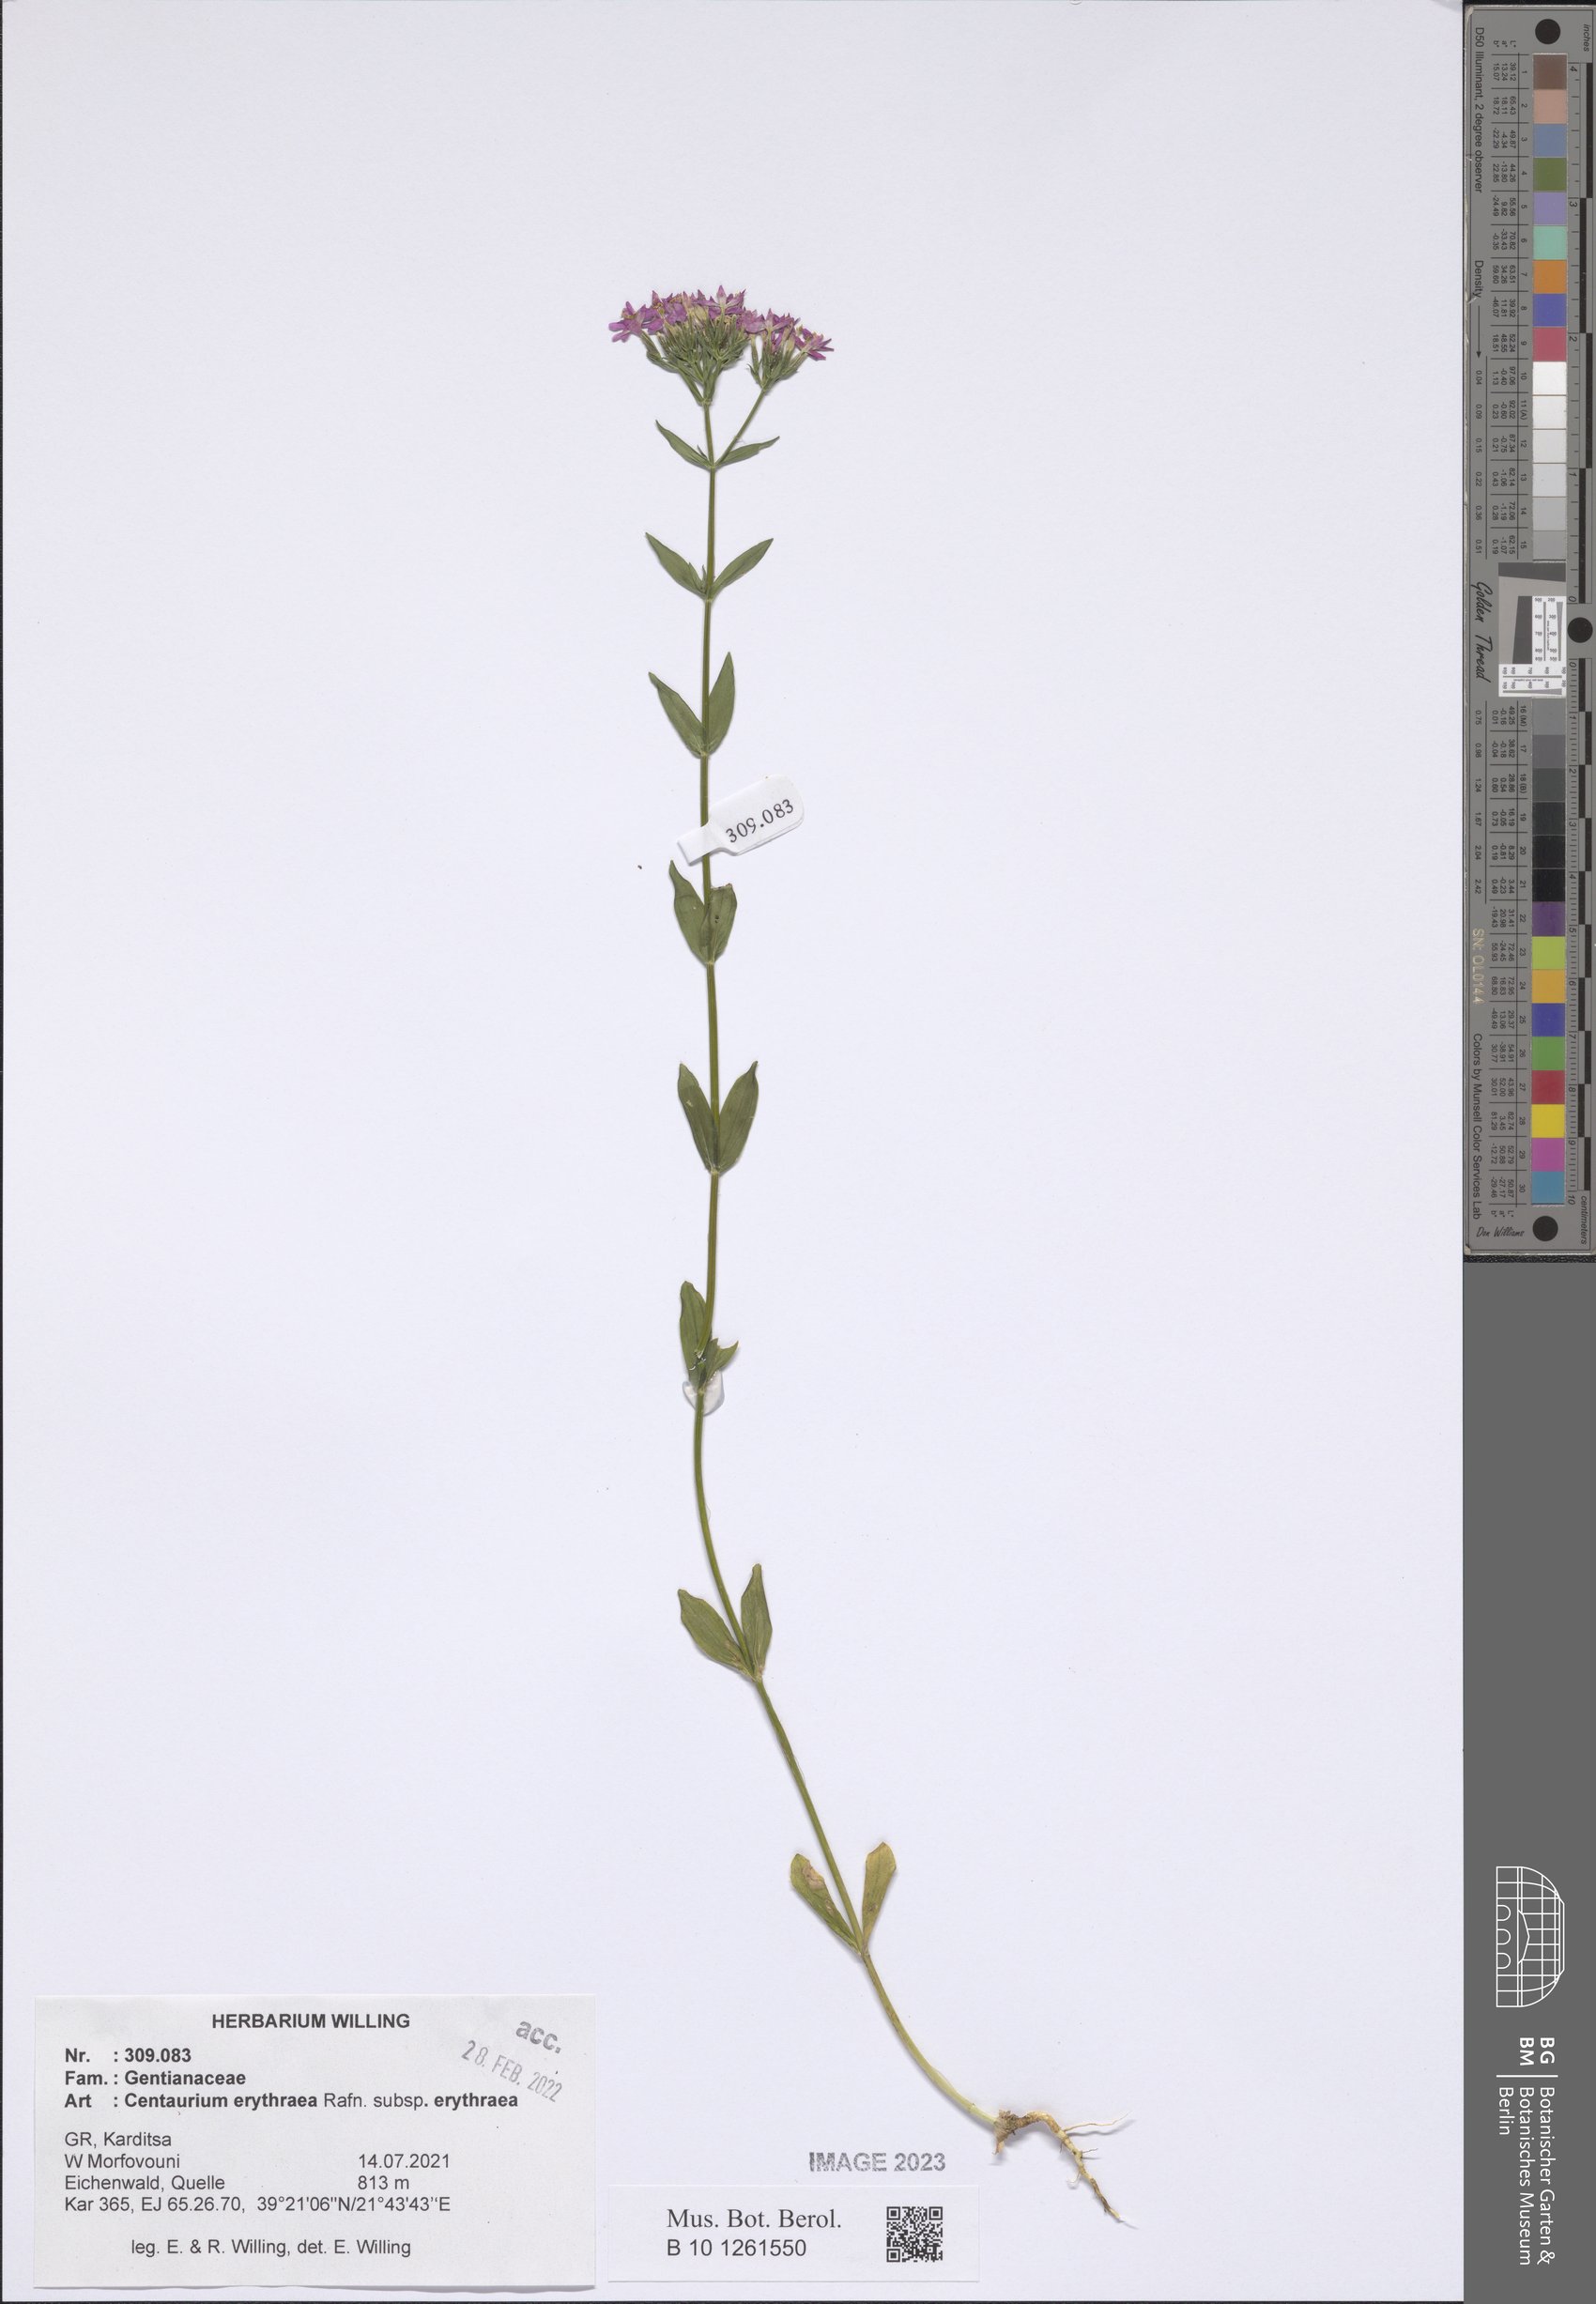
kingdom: Plantae
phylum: Tracheophyta
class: Magnoliopsida
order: Gentianales
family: Gentianaceae
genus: Centaurium
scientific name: Centaurium erythraea
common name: Common centaury
